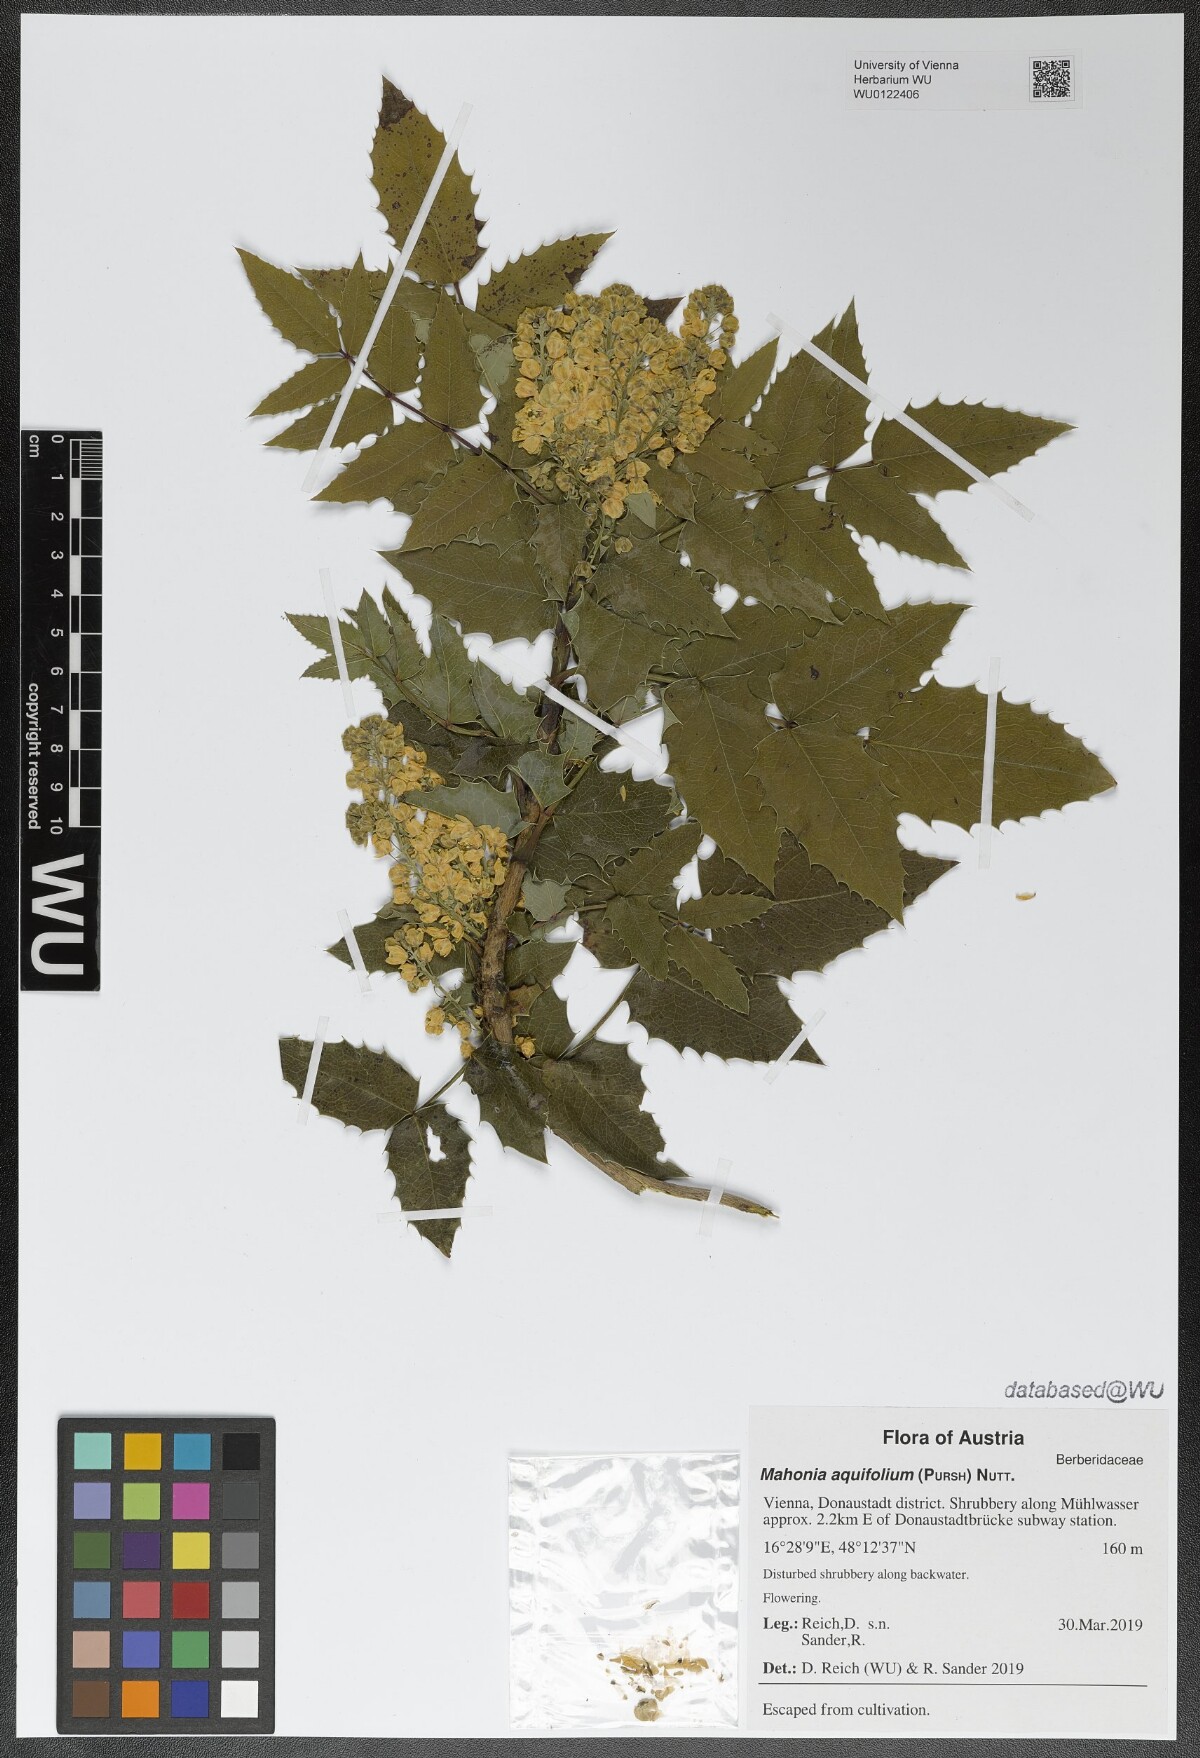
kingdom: Plantae
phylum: Tracheophyta
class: Magnoliopsida
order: Ranunculales
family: Berberidaceae
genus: Mahonia
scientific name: Mahonia aquifolium
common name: Oregon-grape
